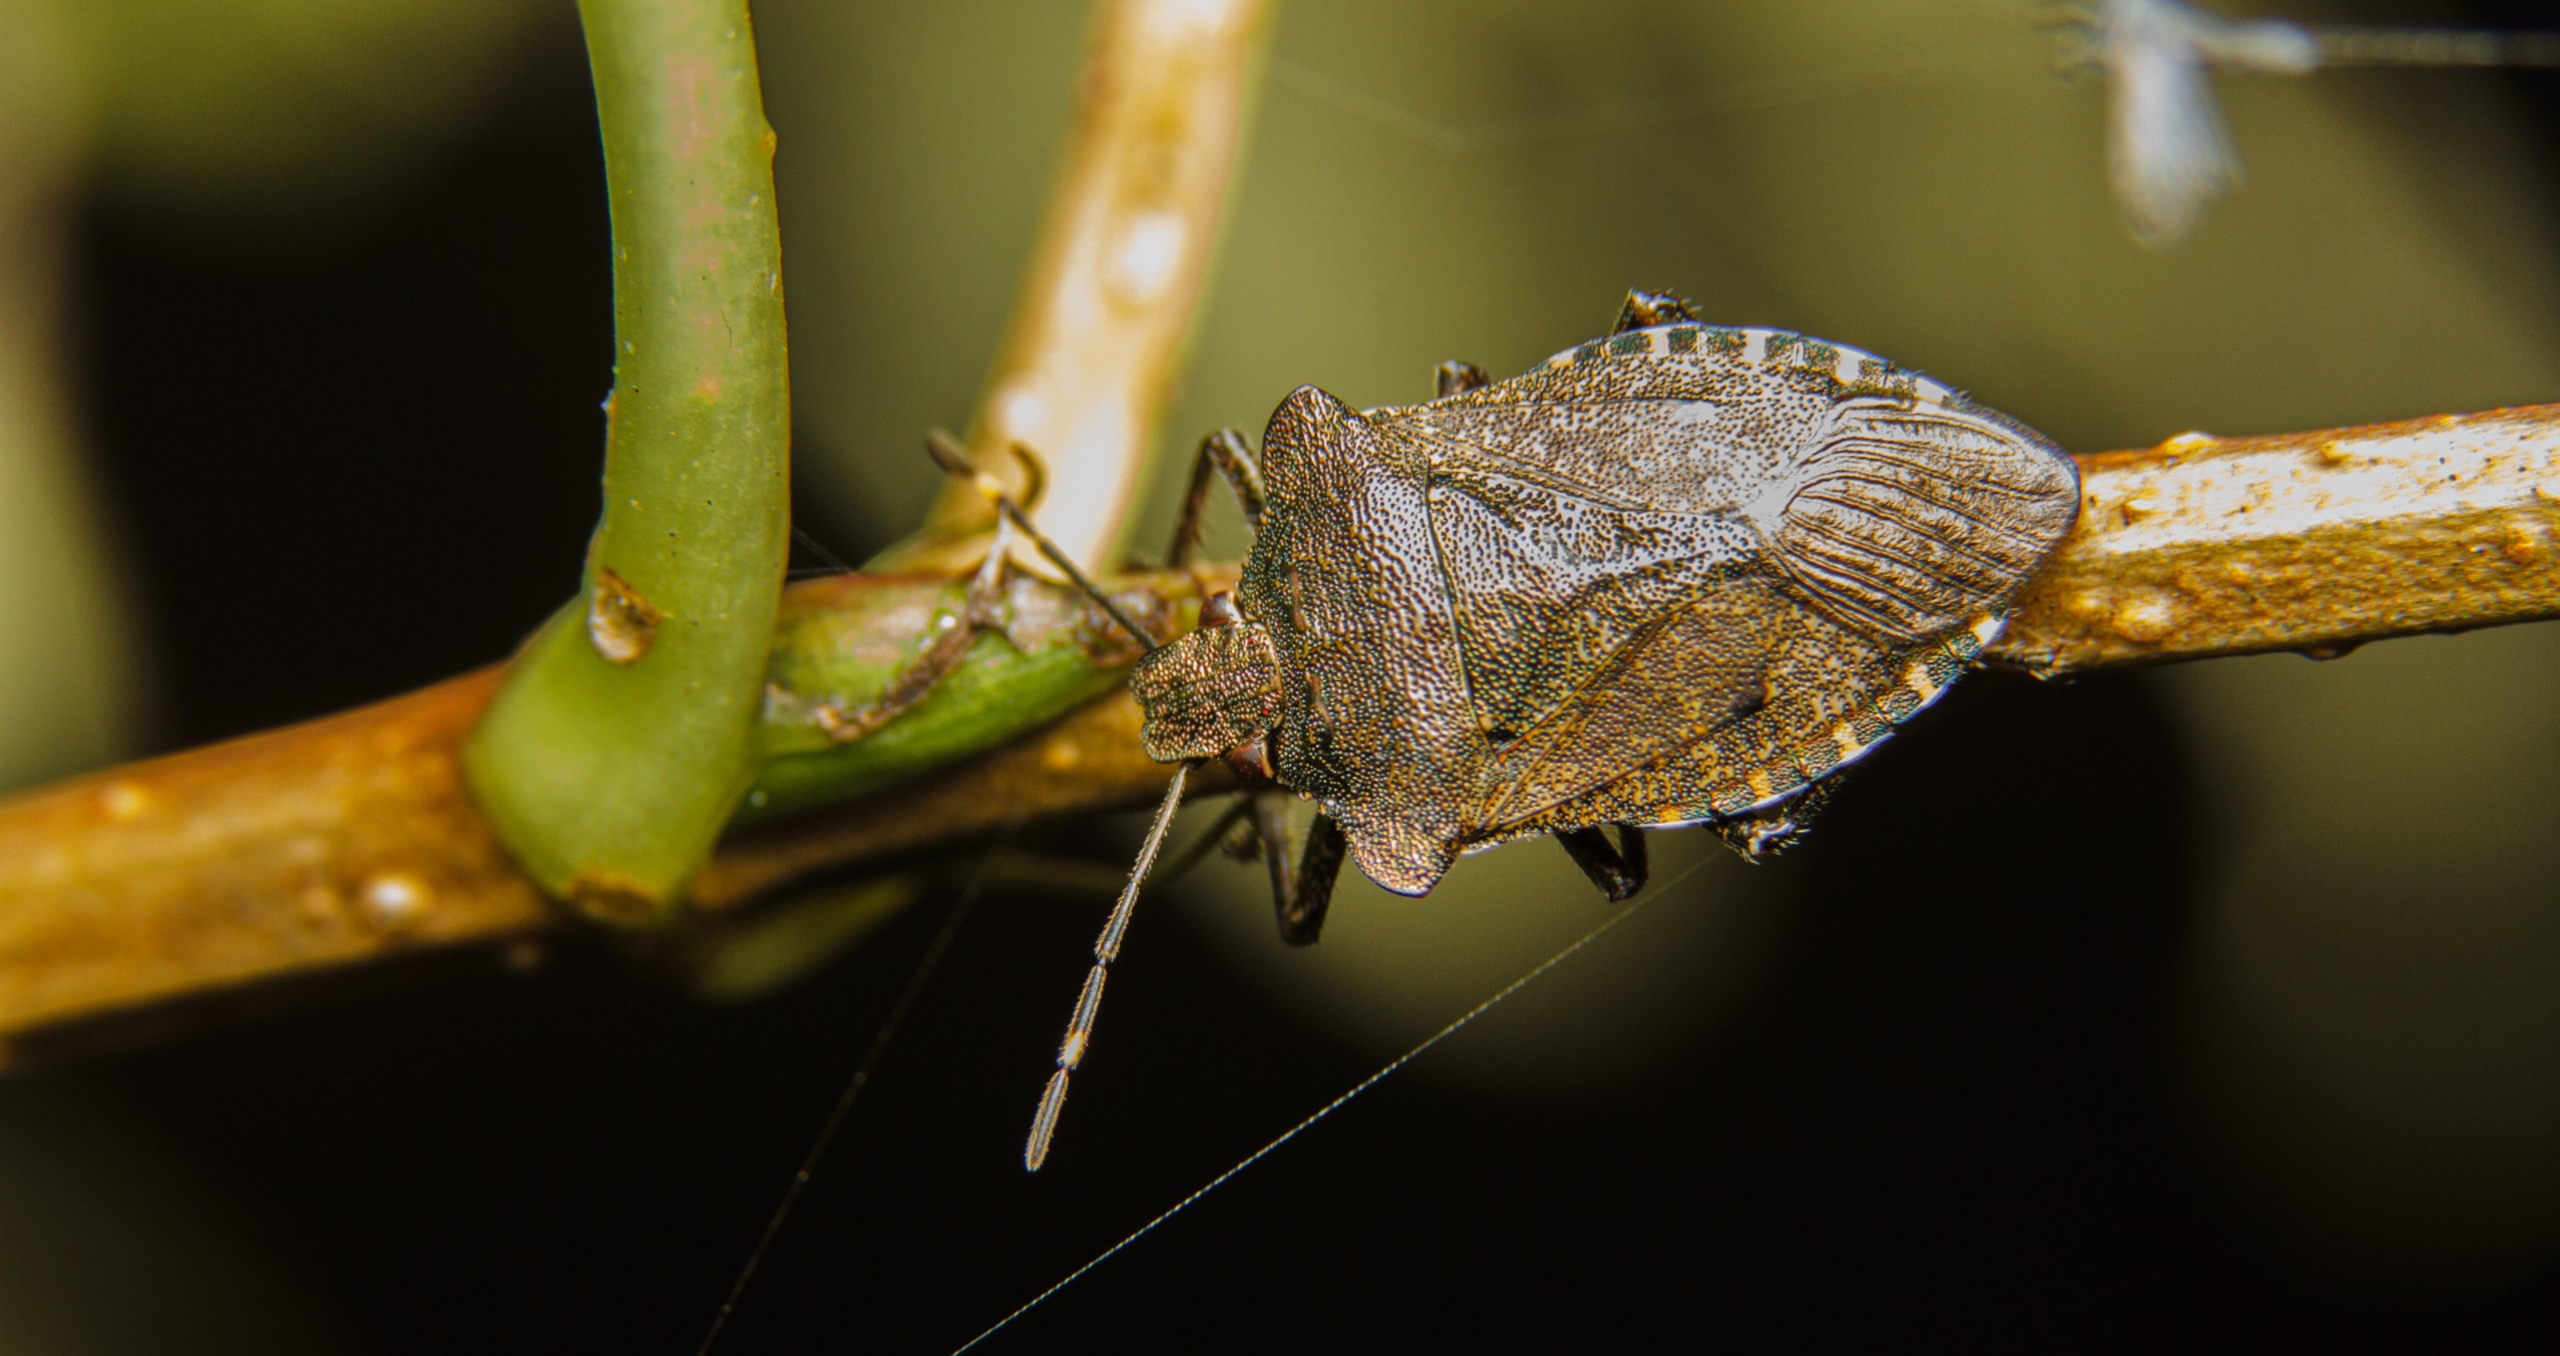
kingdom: Animalia
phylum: Arthropoda
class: Insecta
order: Hemiptera
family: Pentatomidae
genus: Troilus
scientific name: Troilus luridus
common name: Skovbredtæge
